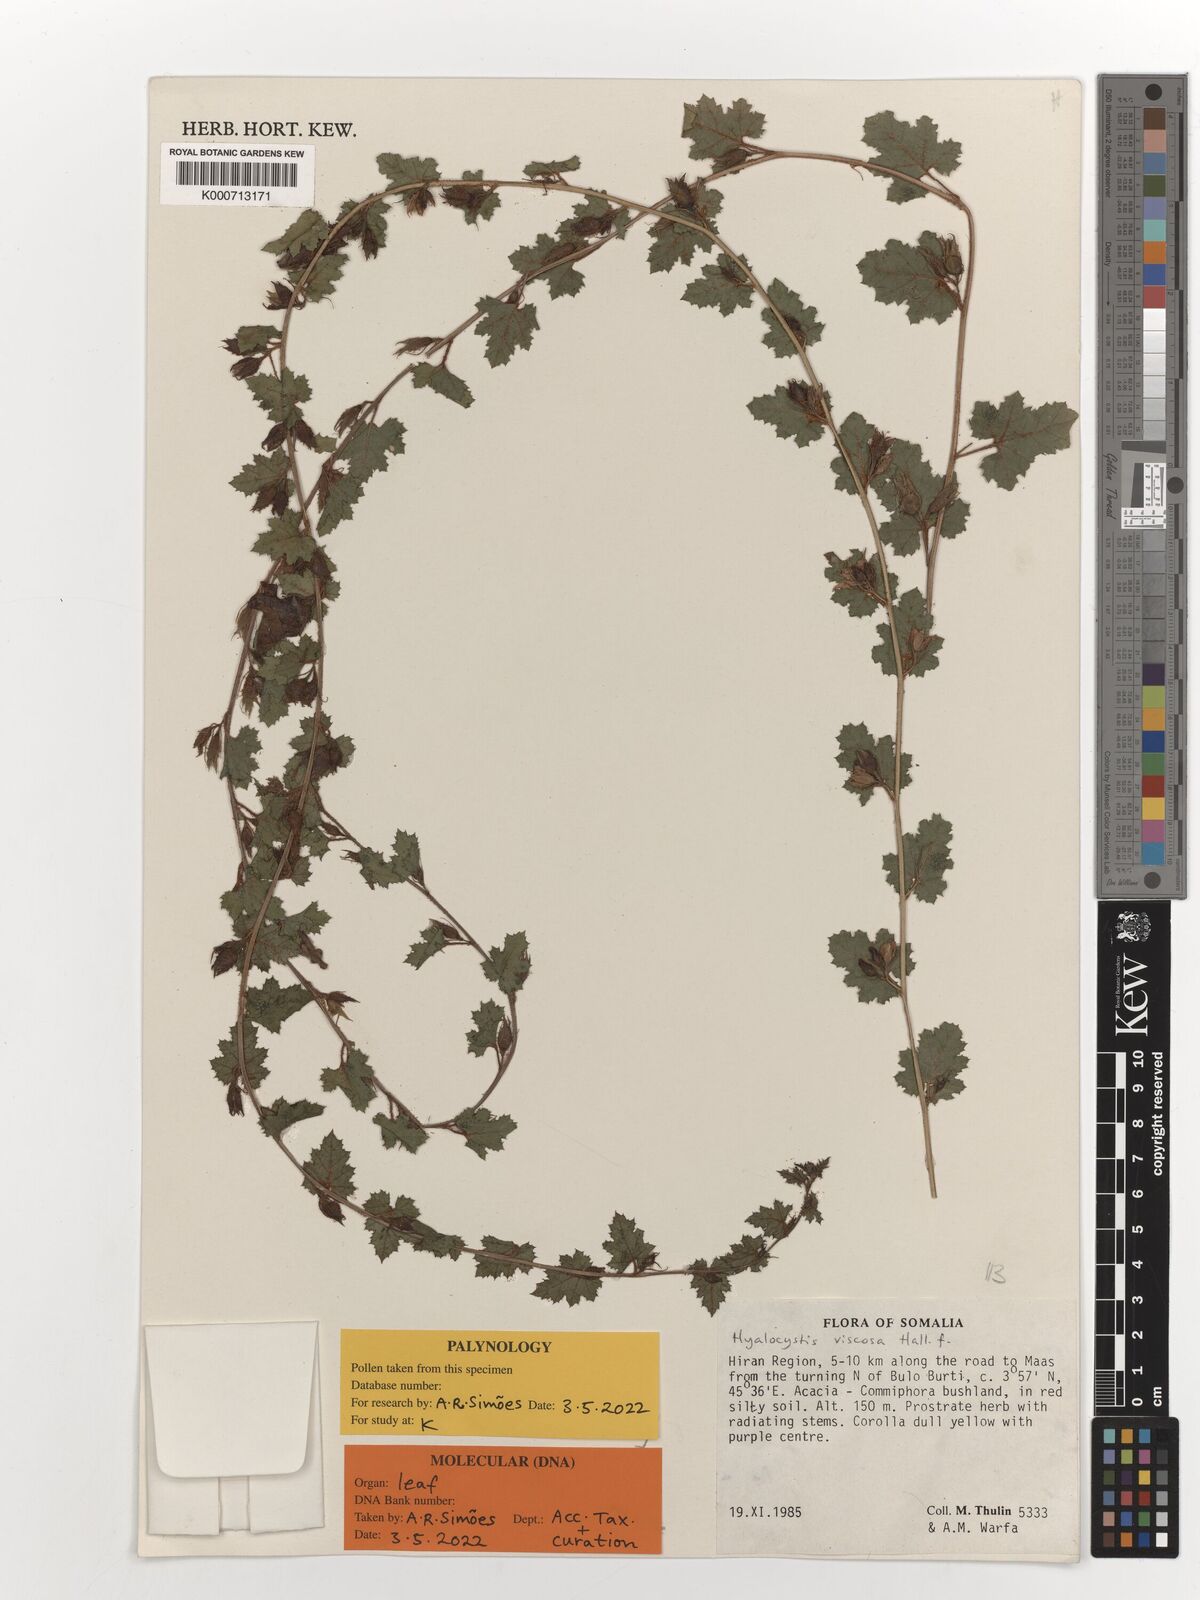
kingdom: Plantae
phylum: Tracheophyta
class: Magnoliopsida
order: Solanales
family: Convolvulaceae
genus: Hyalocystis
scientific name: Hyalocystis viscosa
